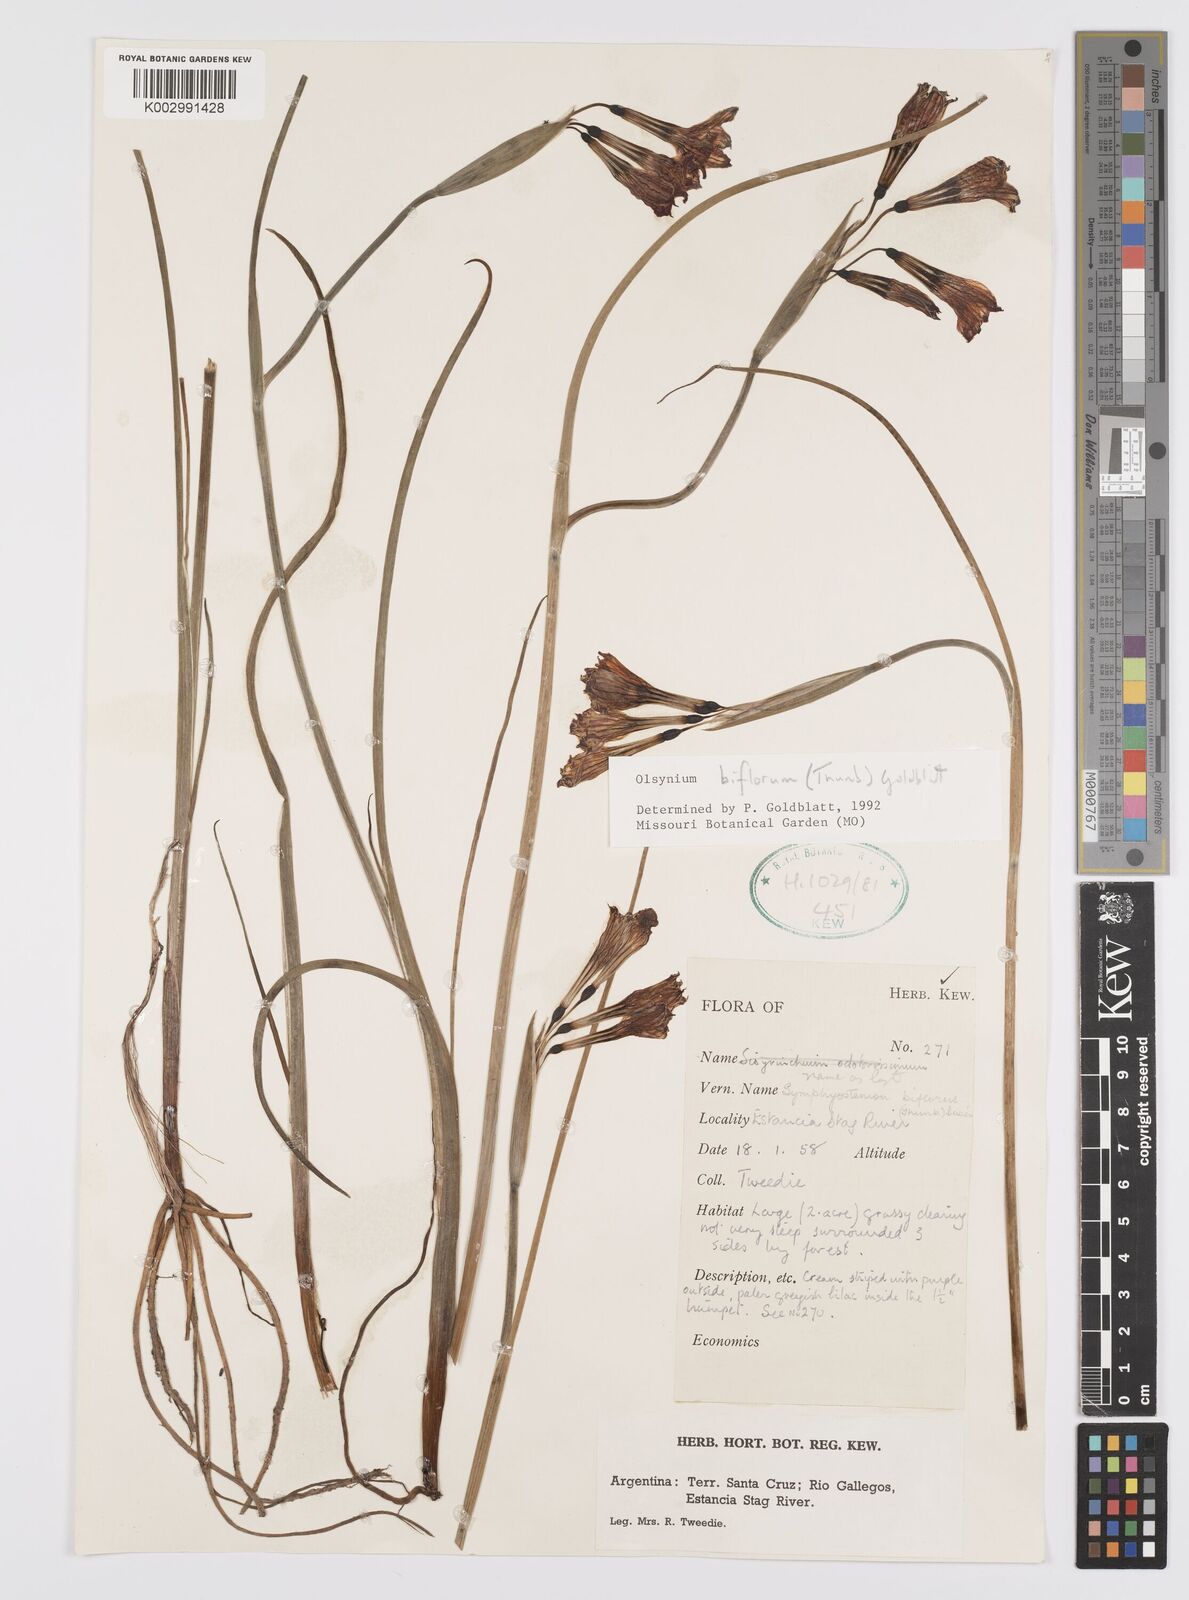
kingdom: Plantae
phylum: Tracheophyta
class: Liliopsida
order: Asparagales
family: Iridaceae
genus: Olsynium
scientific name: Olsynium biflorum
